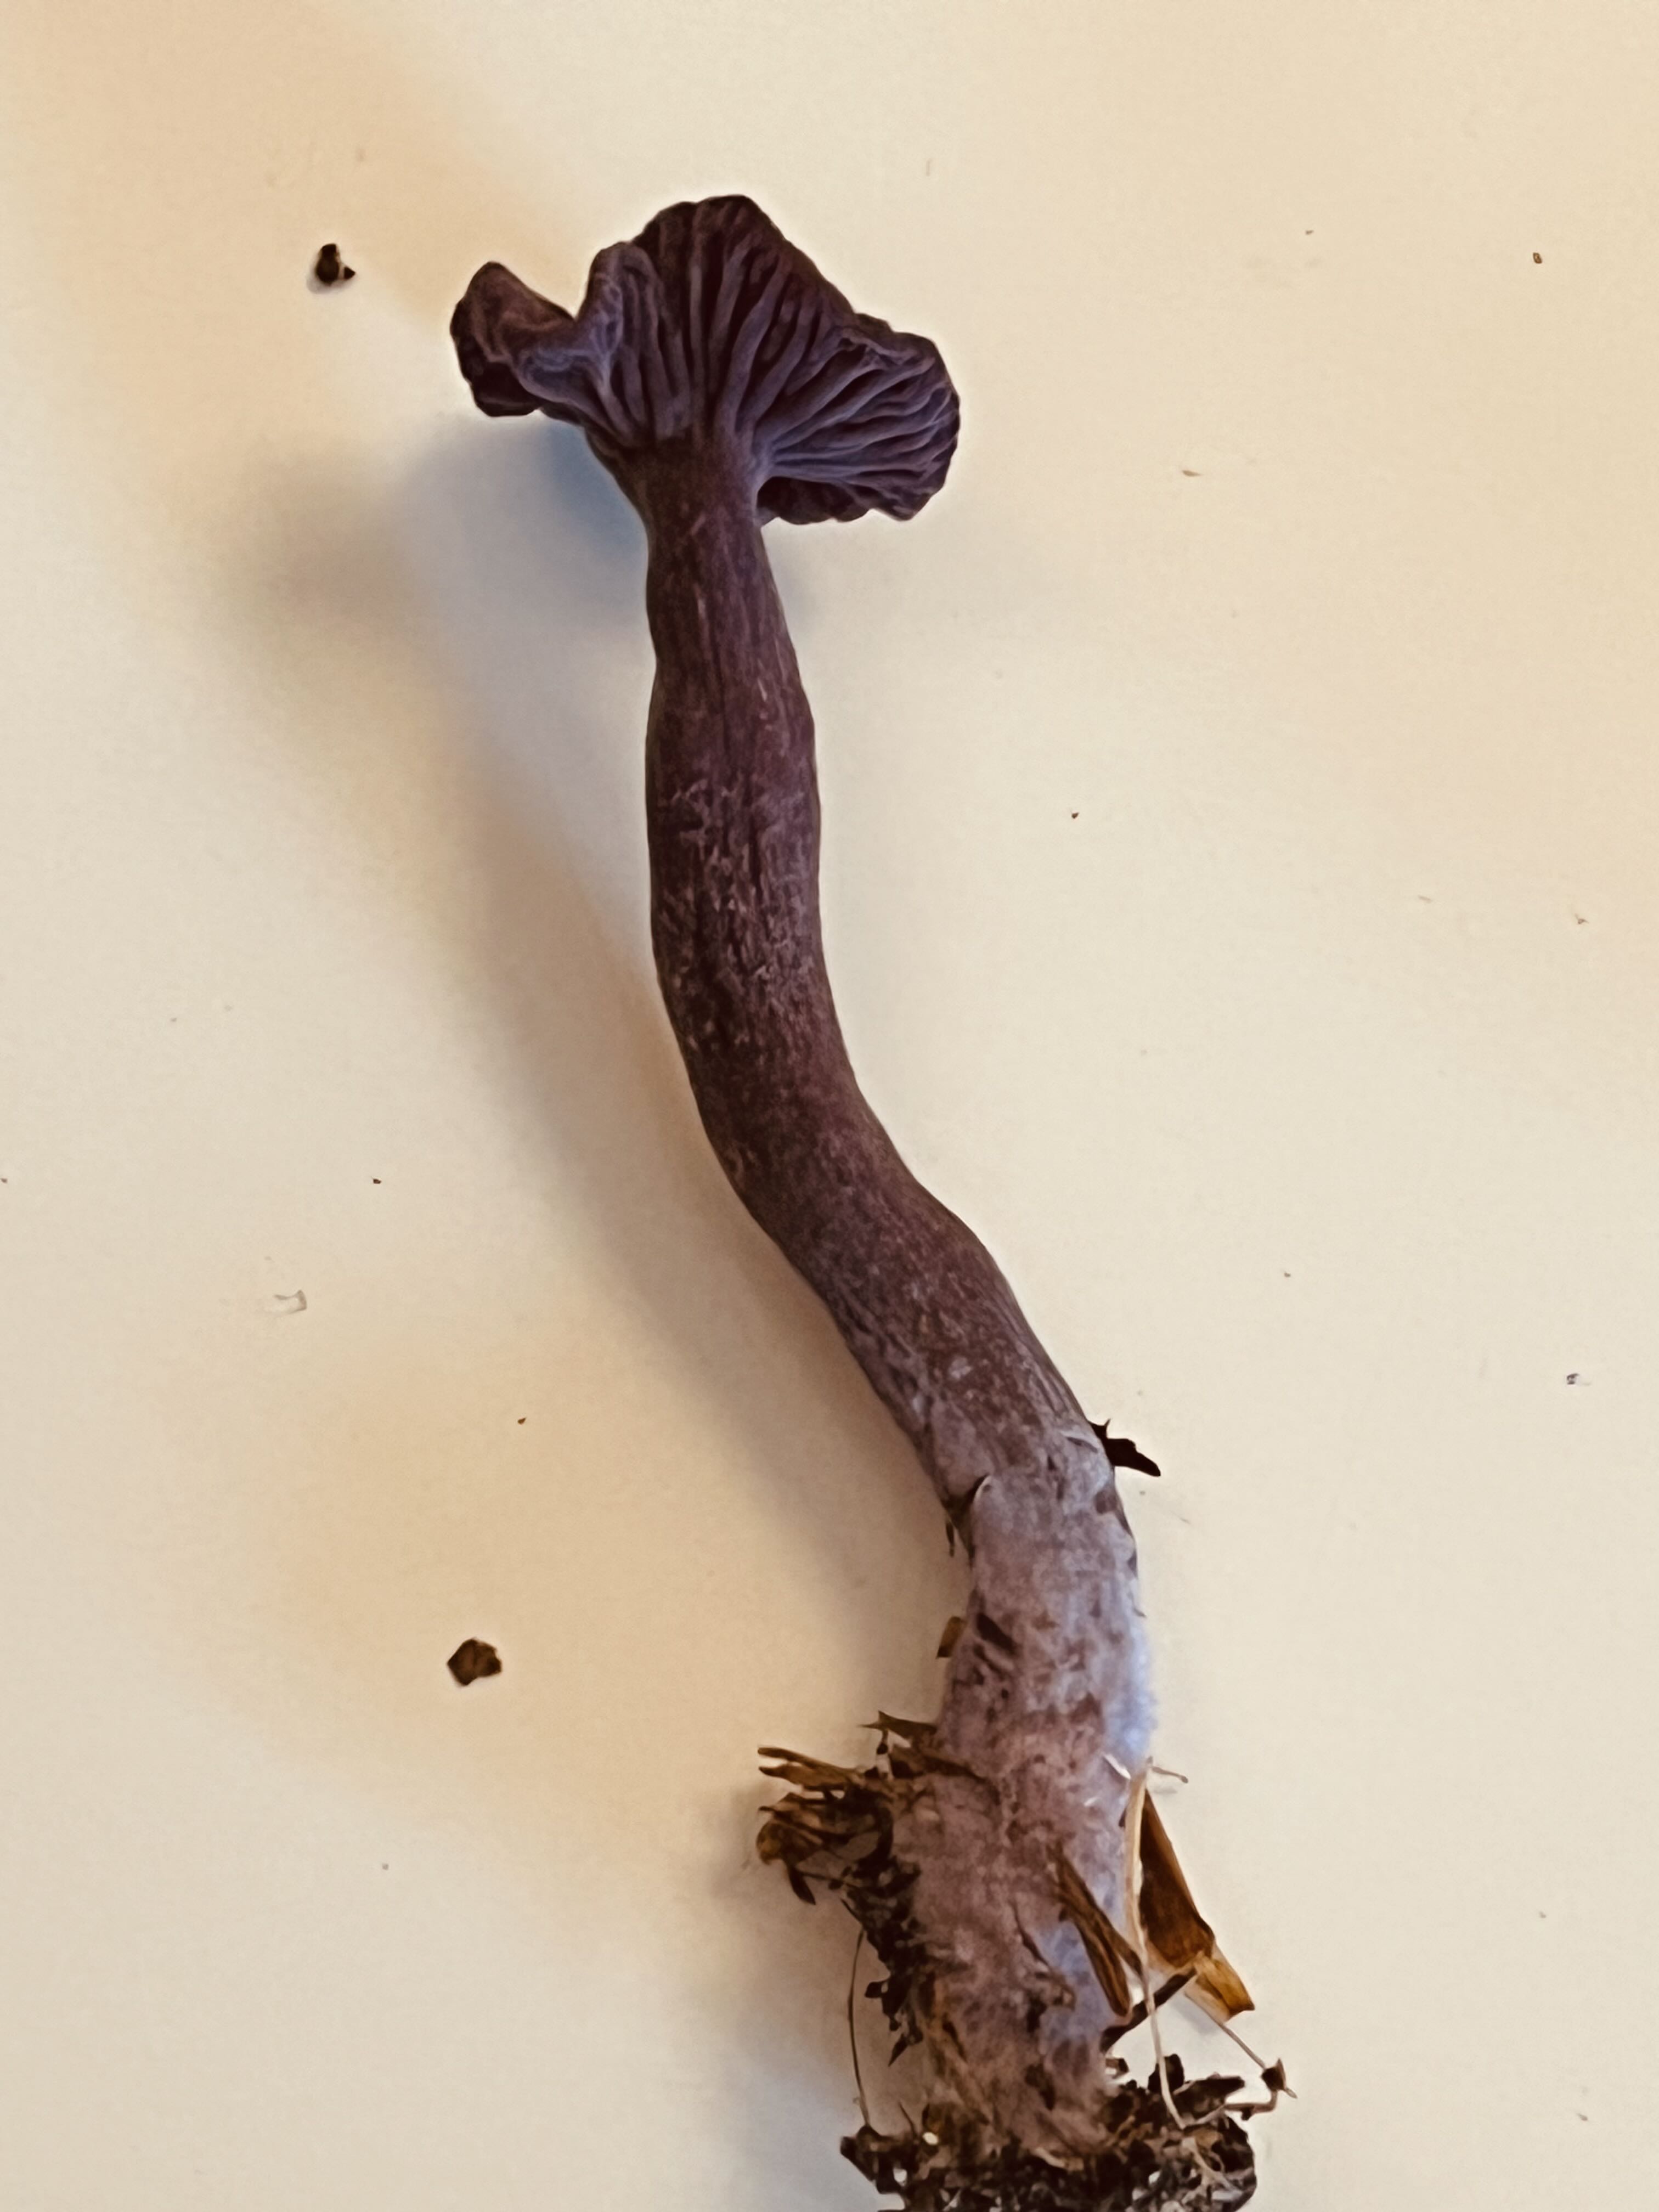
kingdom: Fungi
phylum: Basidiomycota
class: Agaricomycetes
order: Agaricales
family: Hydnangiaceae
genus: Laccaria
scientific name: Laccaria amethystina
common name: violet ametysthat
